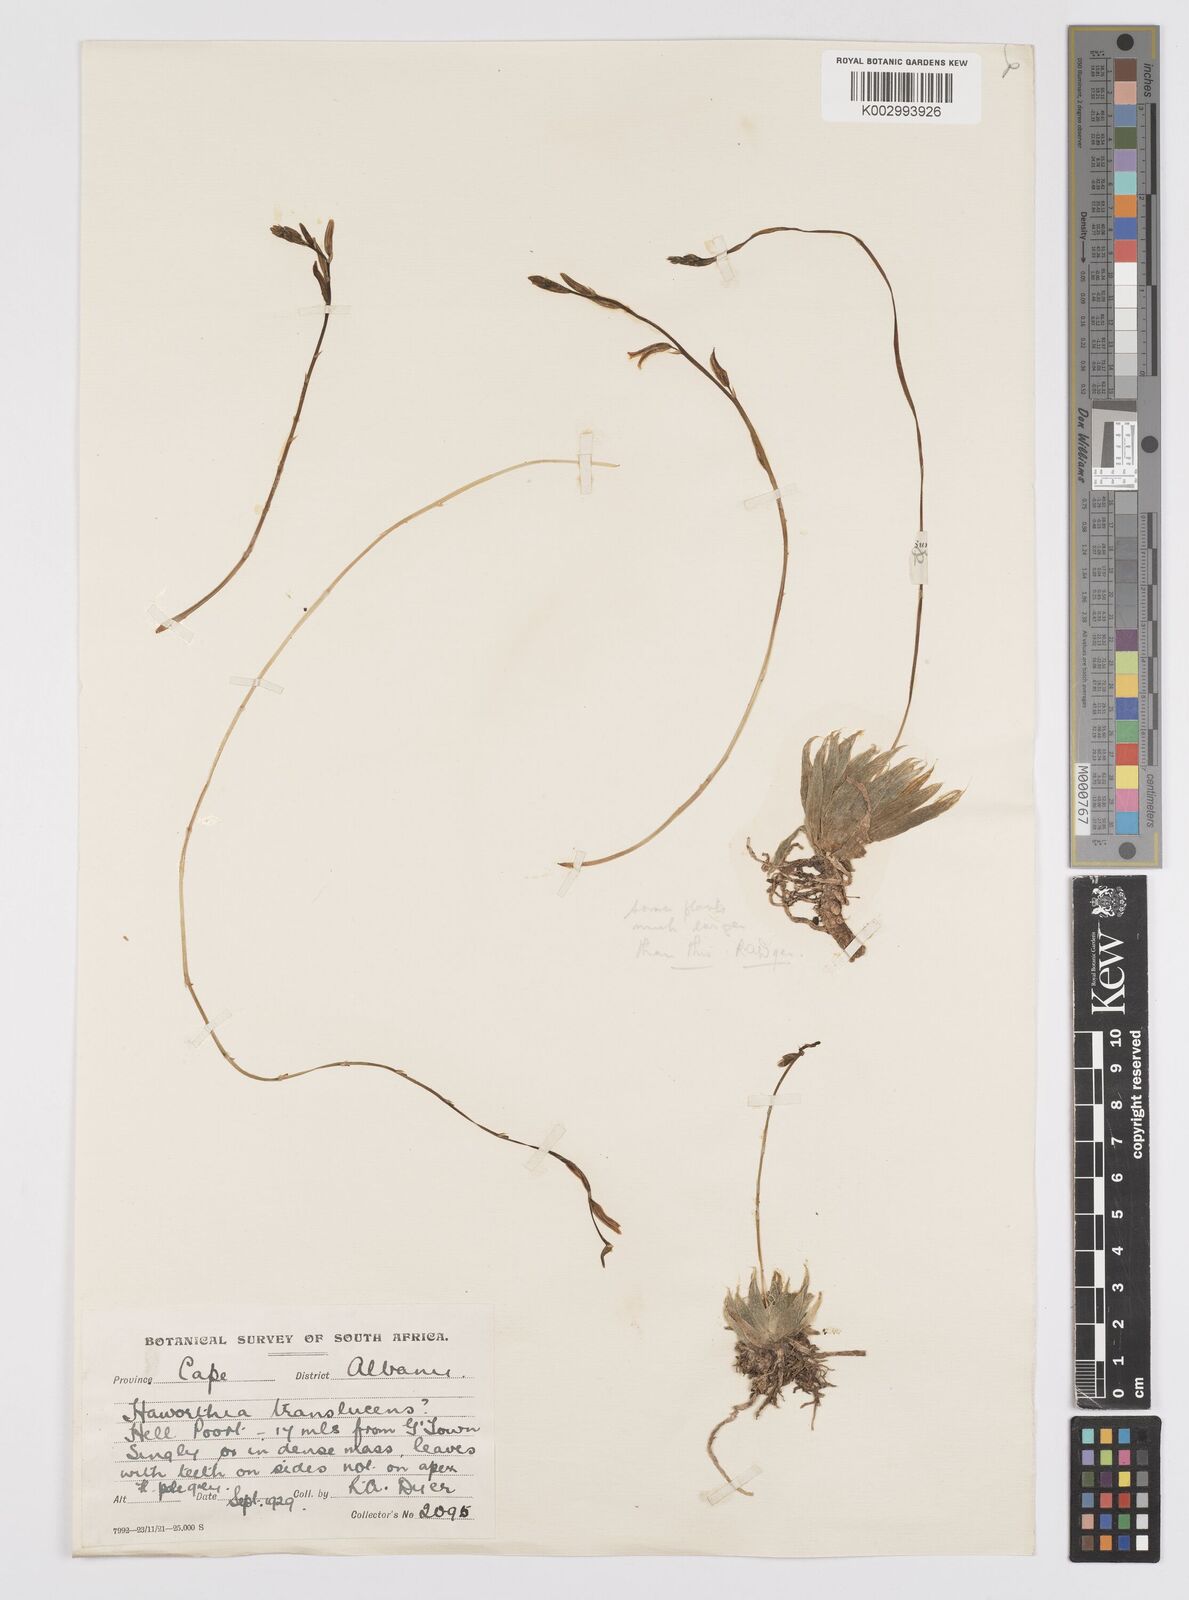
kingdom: Plantae
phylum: Tracheophyta
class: Liliopsida
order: Asparagales
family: Asphodelaceae
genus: Haworthia
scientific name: Haworthia herbacea
